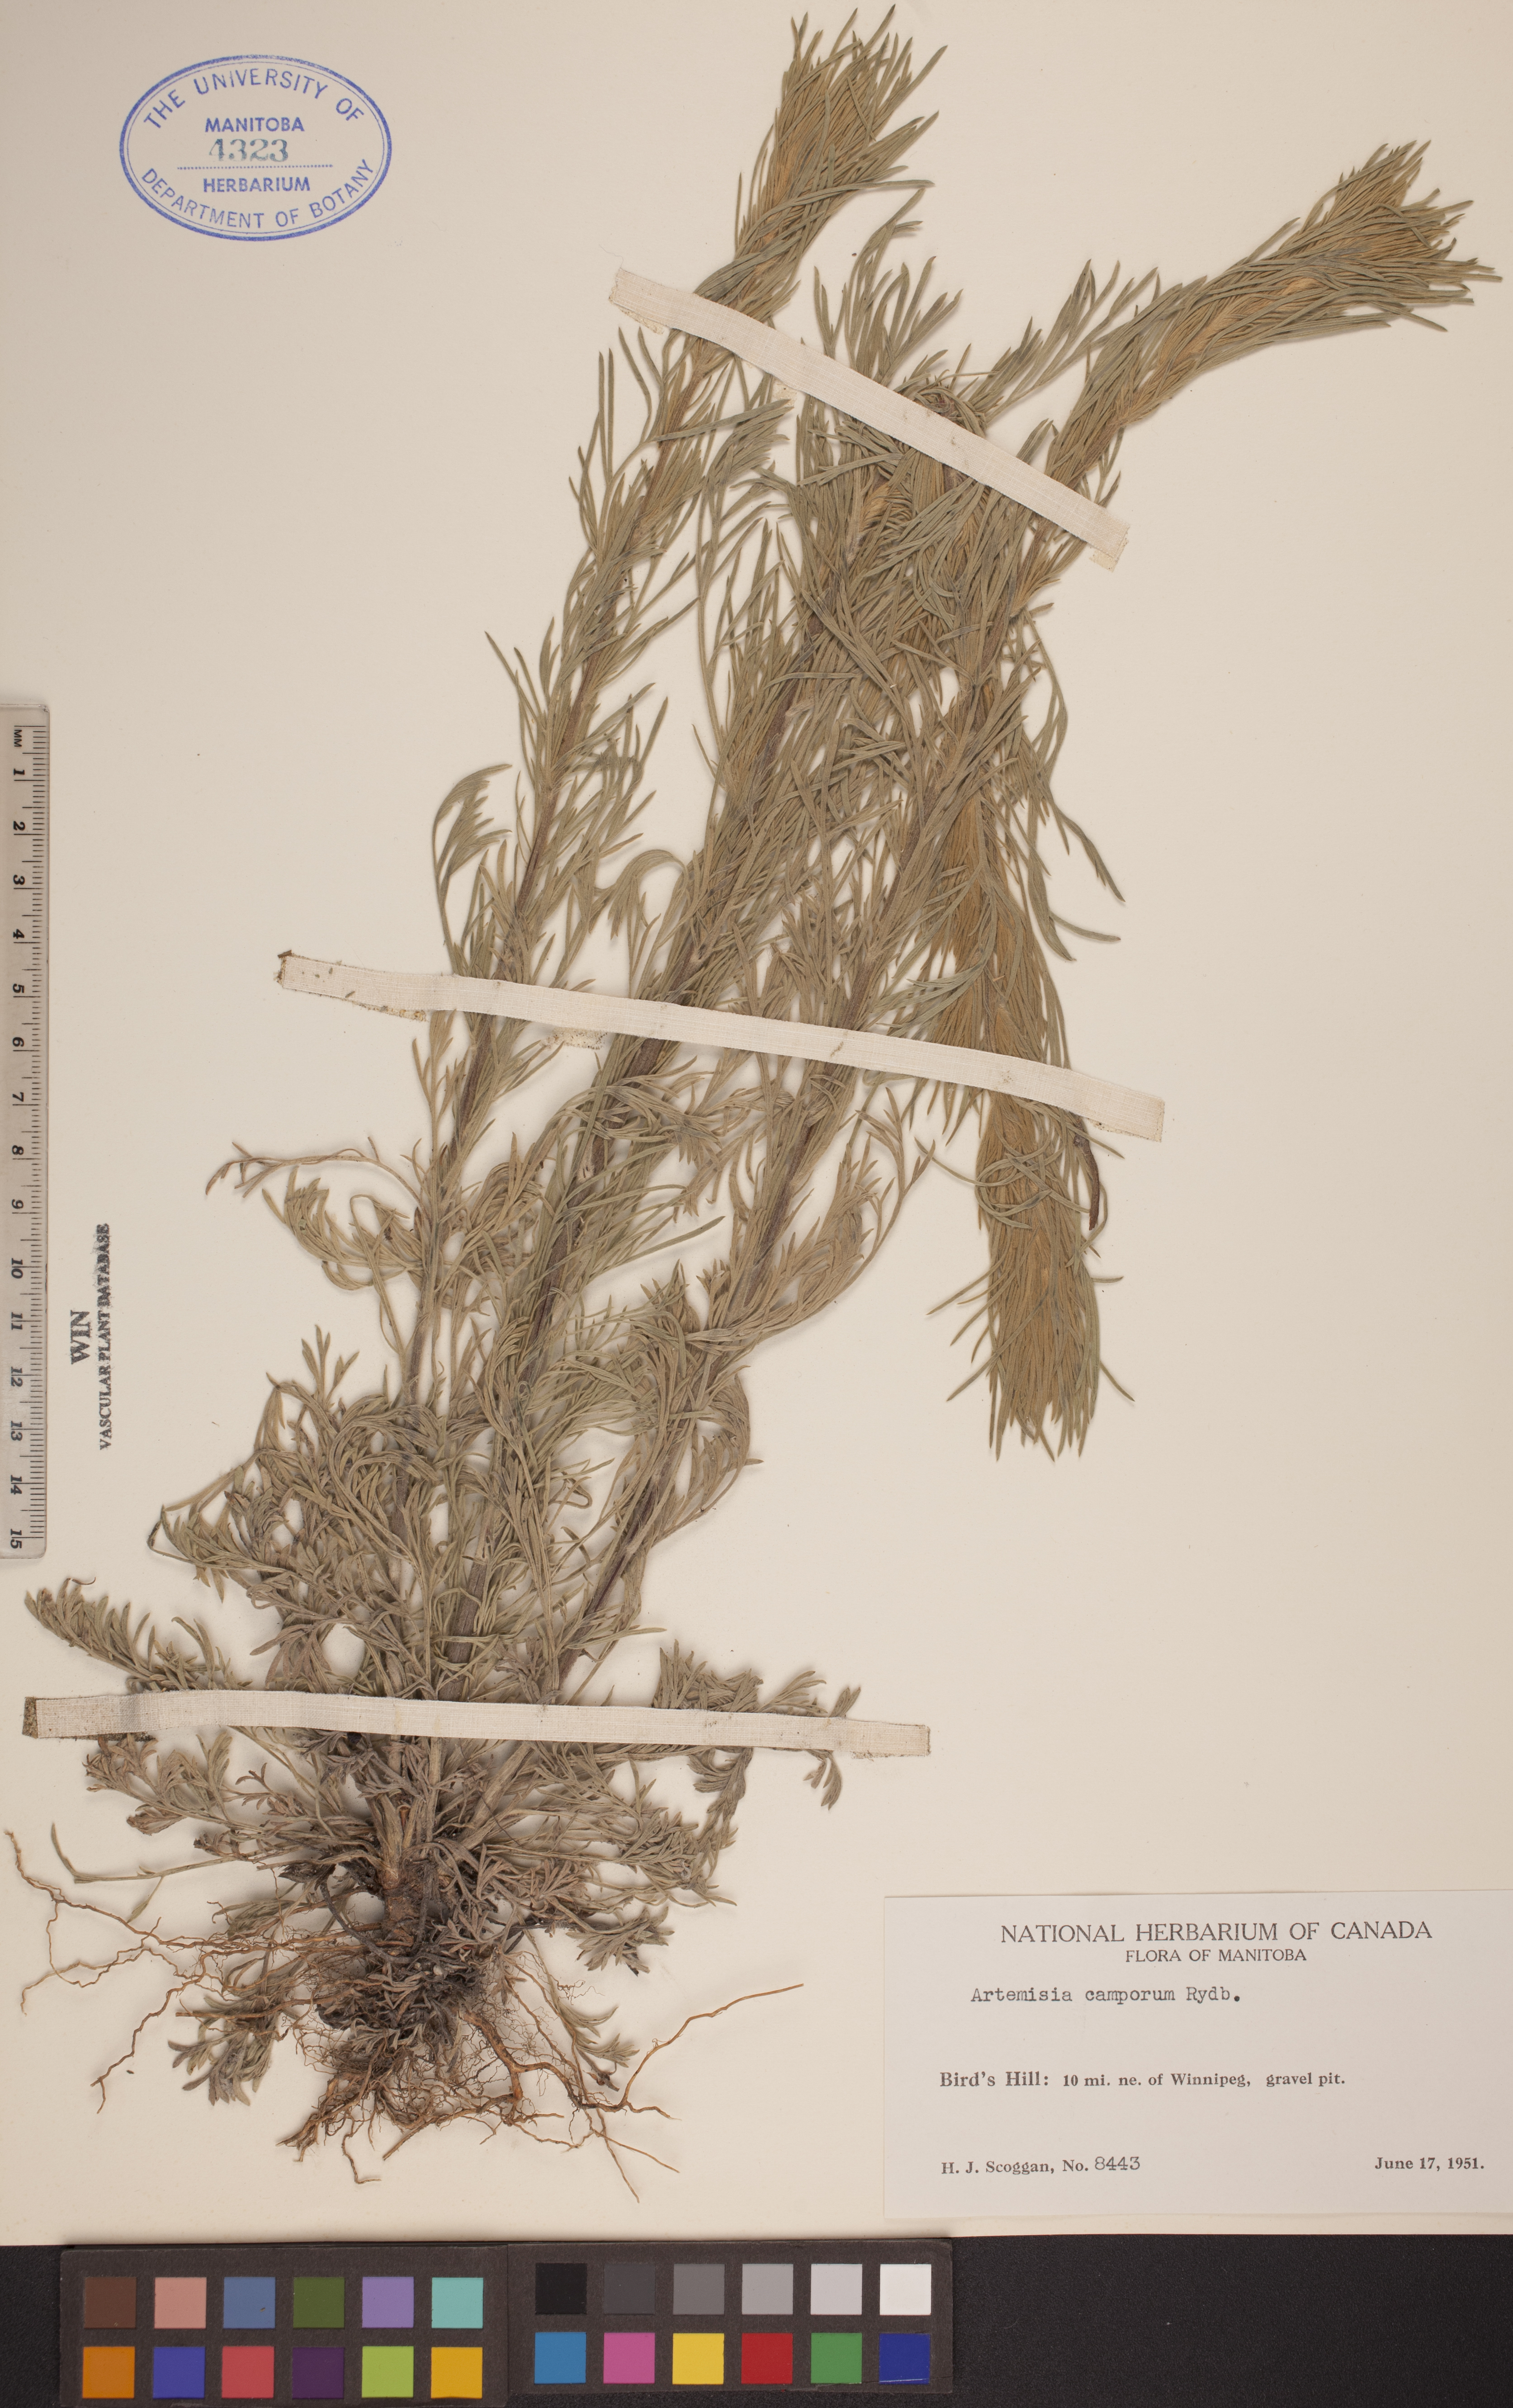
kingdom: Plantae
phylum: Tracheophyta
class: Magnoliopsida
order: Asterales
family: Asteraceae
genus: Artemisia
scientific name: Artemisia campestris
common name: Field wormwood
